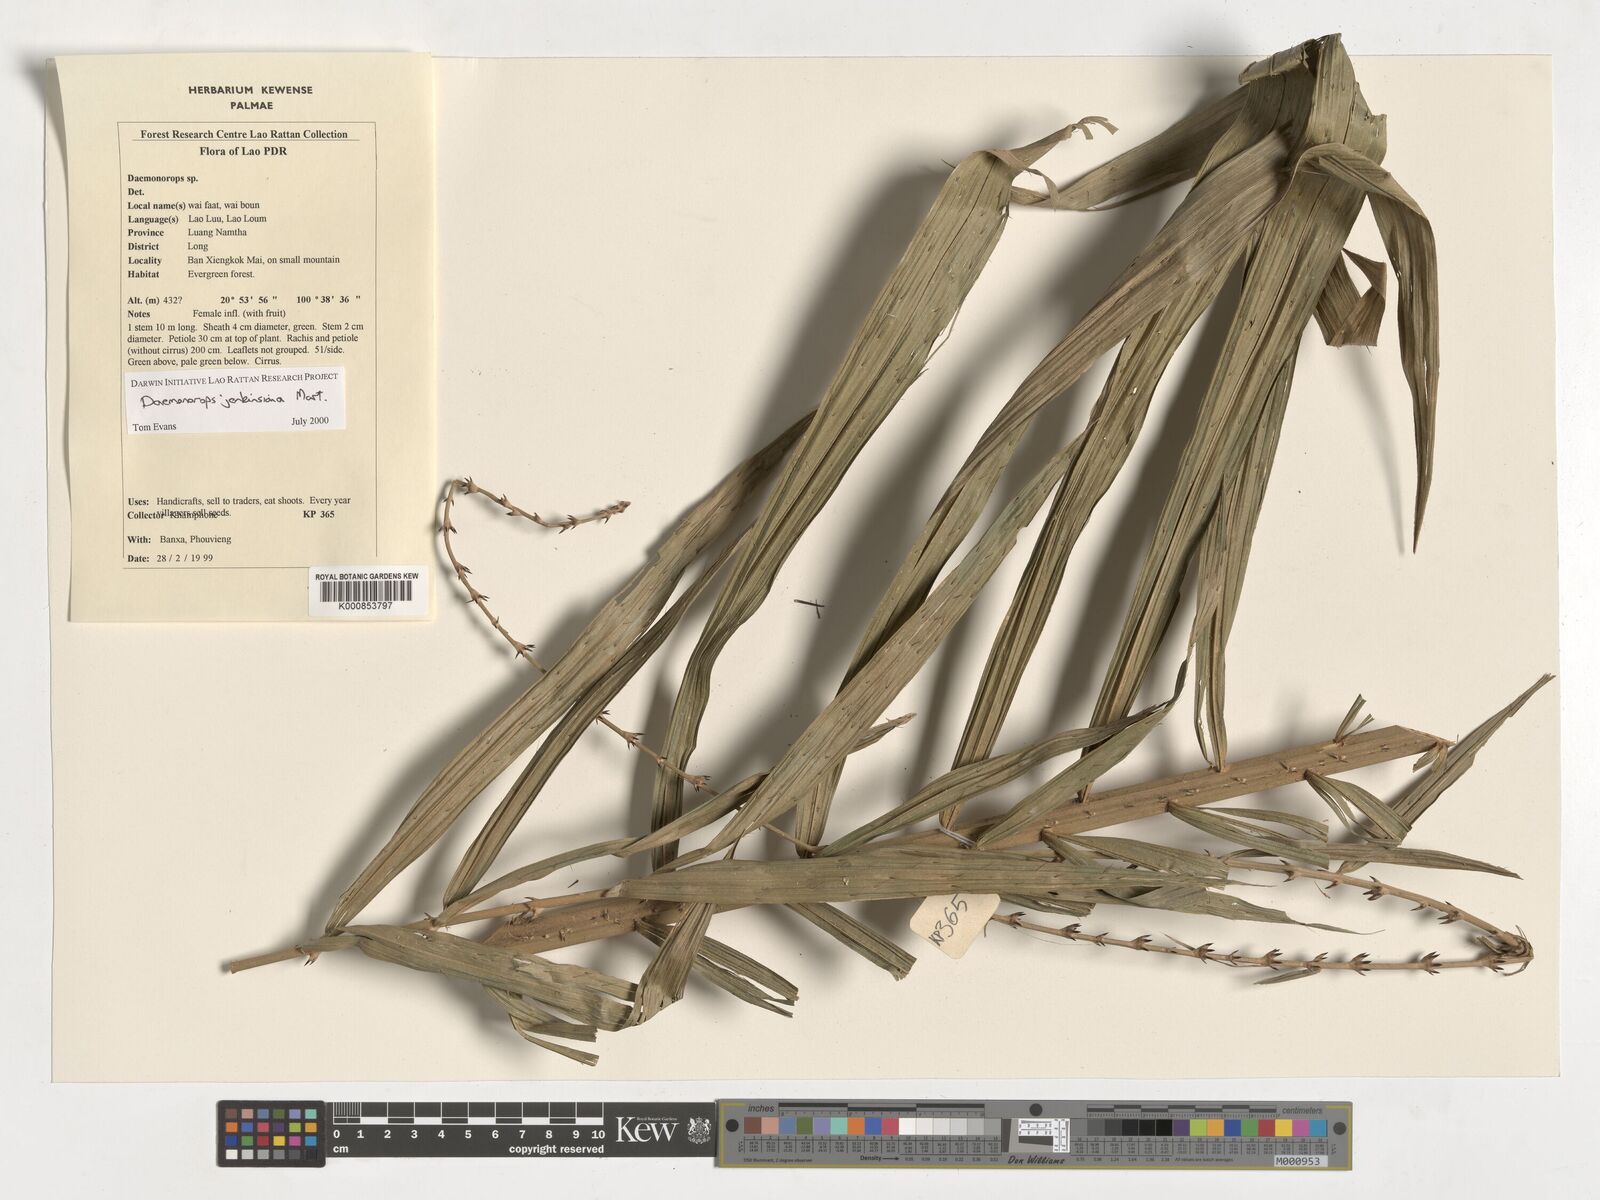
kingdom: Plantae
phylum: Tracheophyta
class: Liliopsida
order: Arecales
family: Arecaceae
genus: Calamus
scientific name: Calamus melanochaetes
